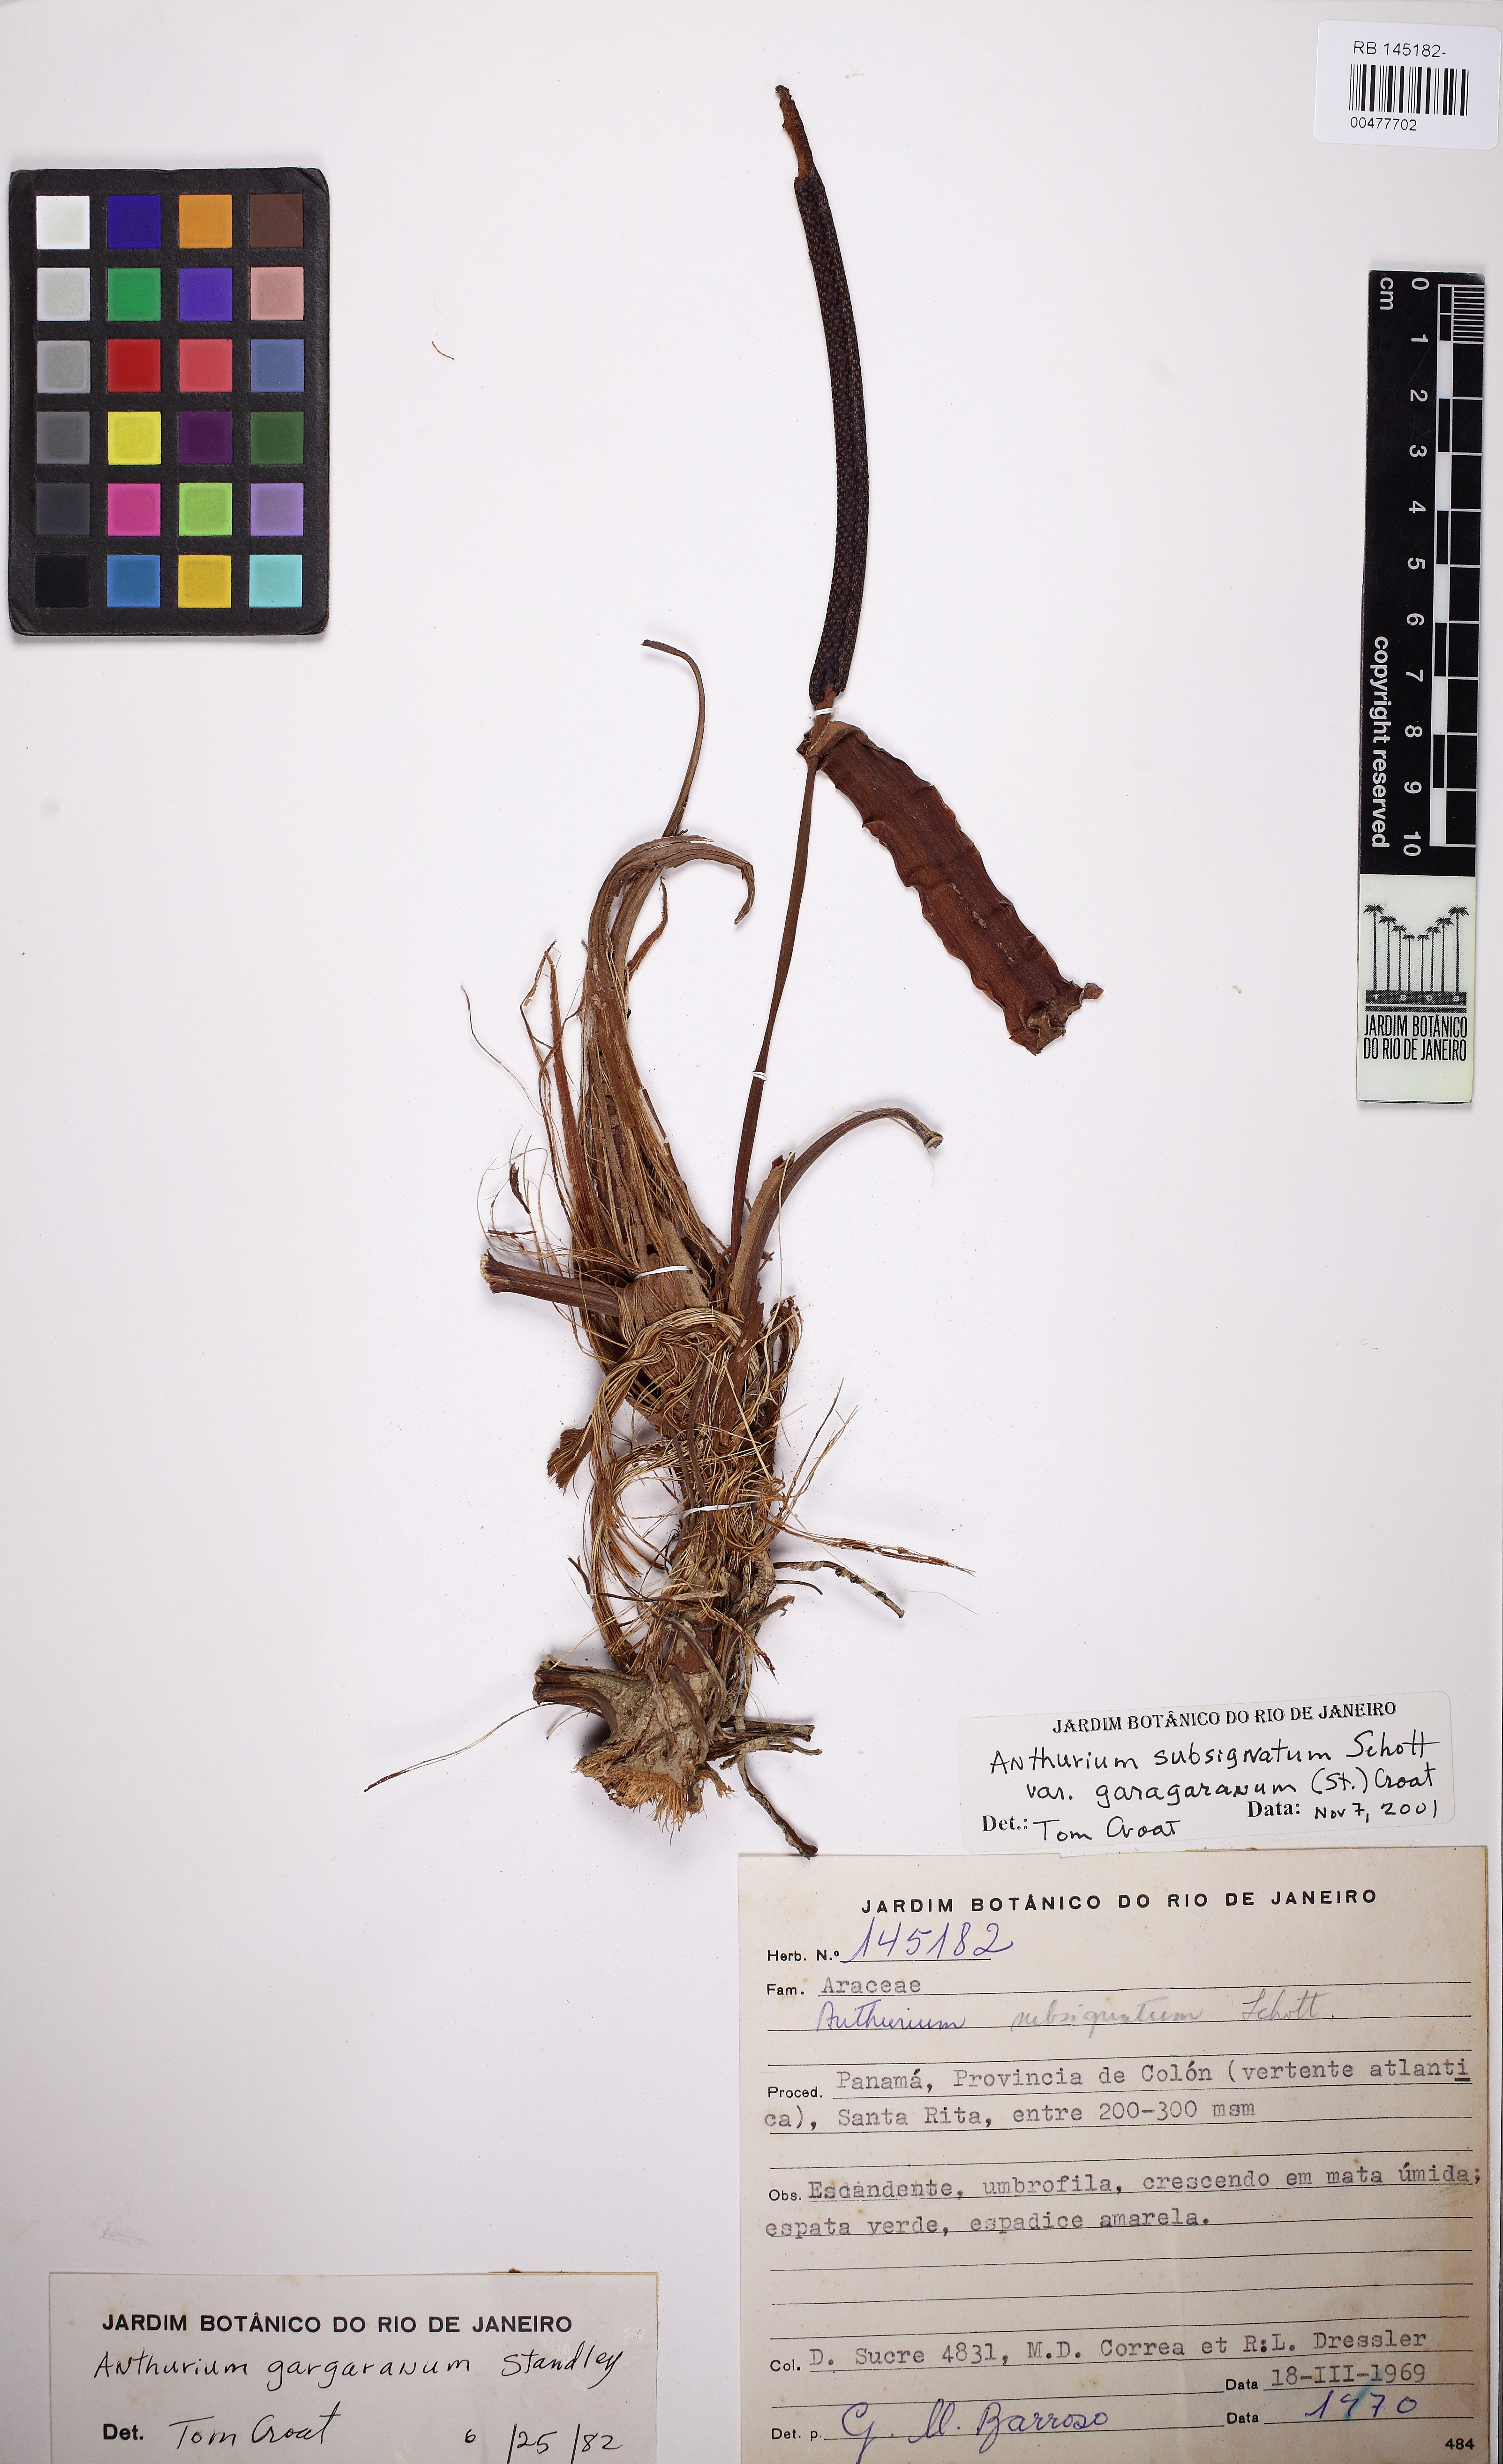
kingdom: Plantae
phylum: Tracheophyta
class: Liliopsida
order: Alismatales
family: Araceae
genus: Anthurium
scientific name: Anthurium subsignatum
